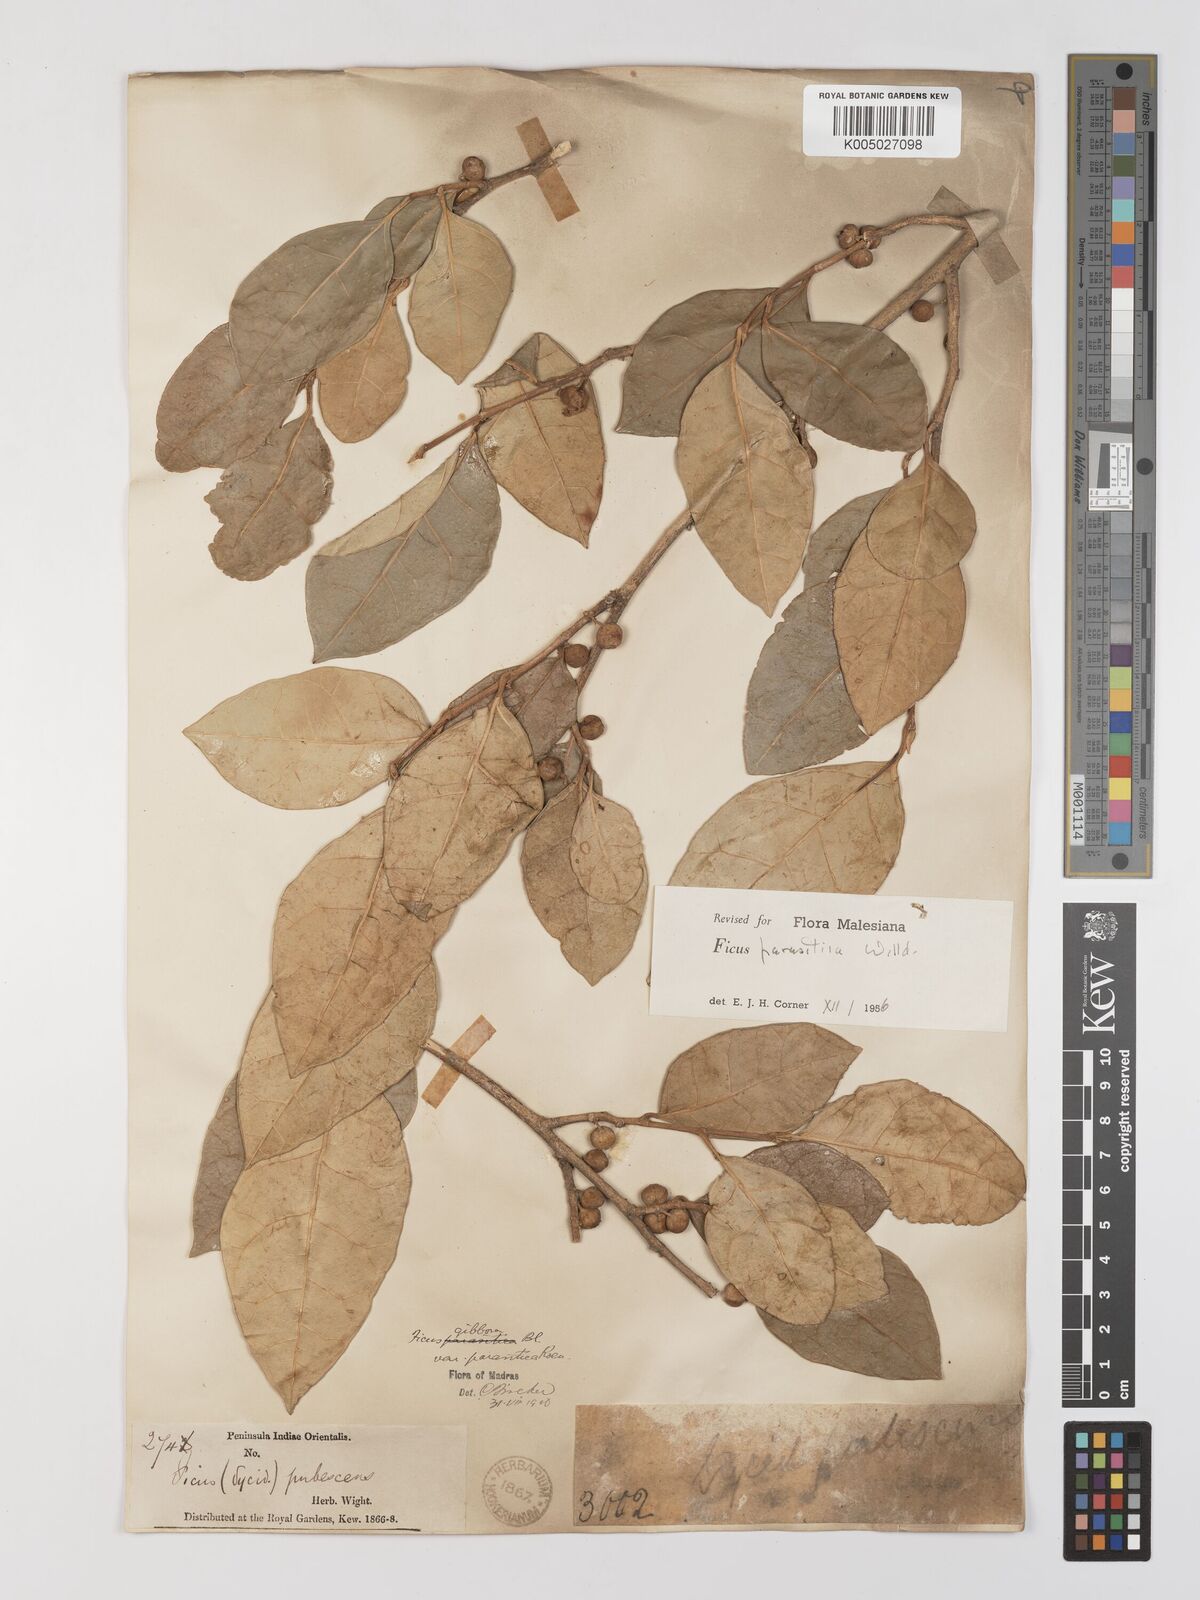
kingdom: Plantae
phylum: Tracheophyta
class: Magnoliopsida
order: Rosales
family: Moraceae
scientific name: Moraceae
